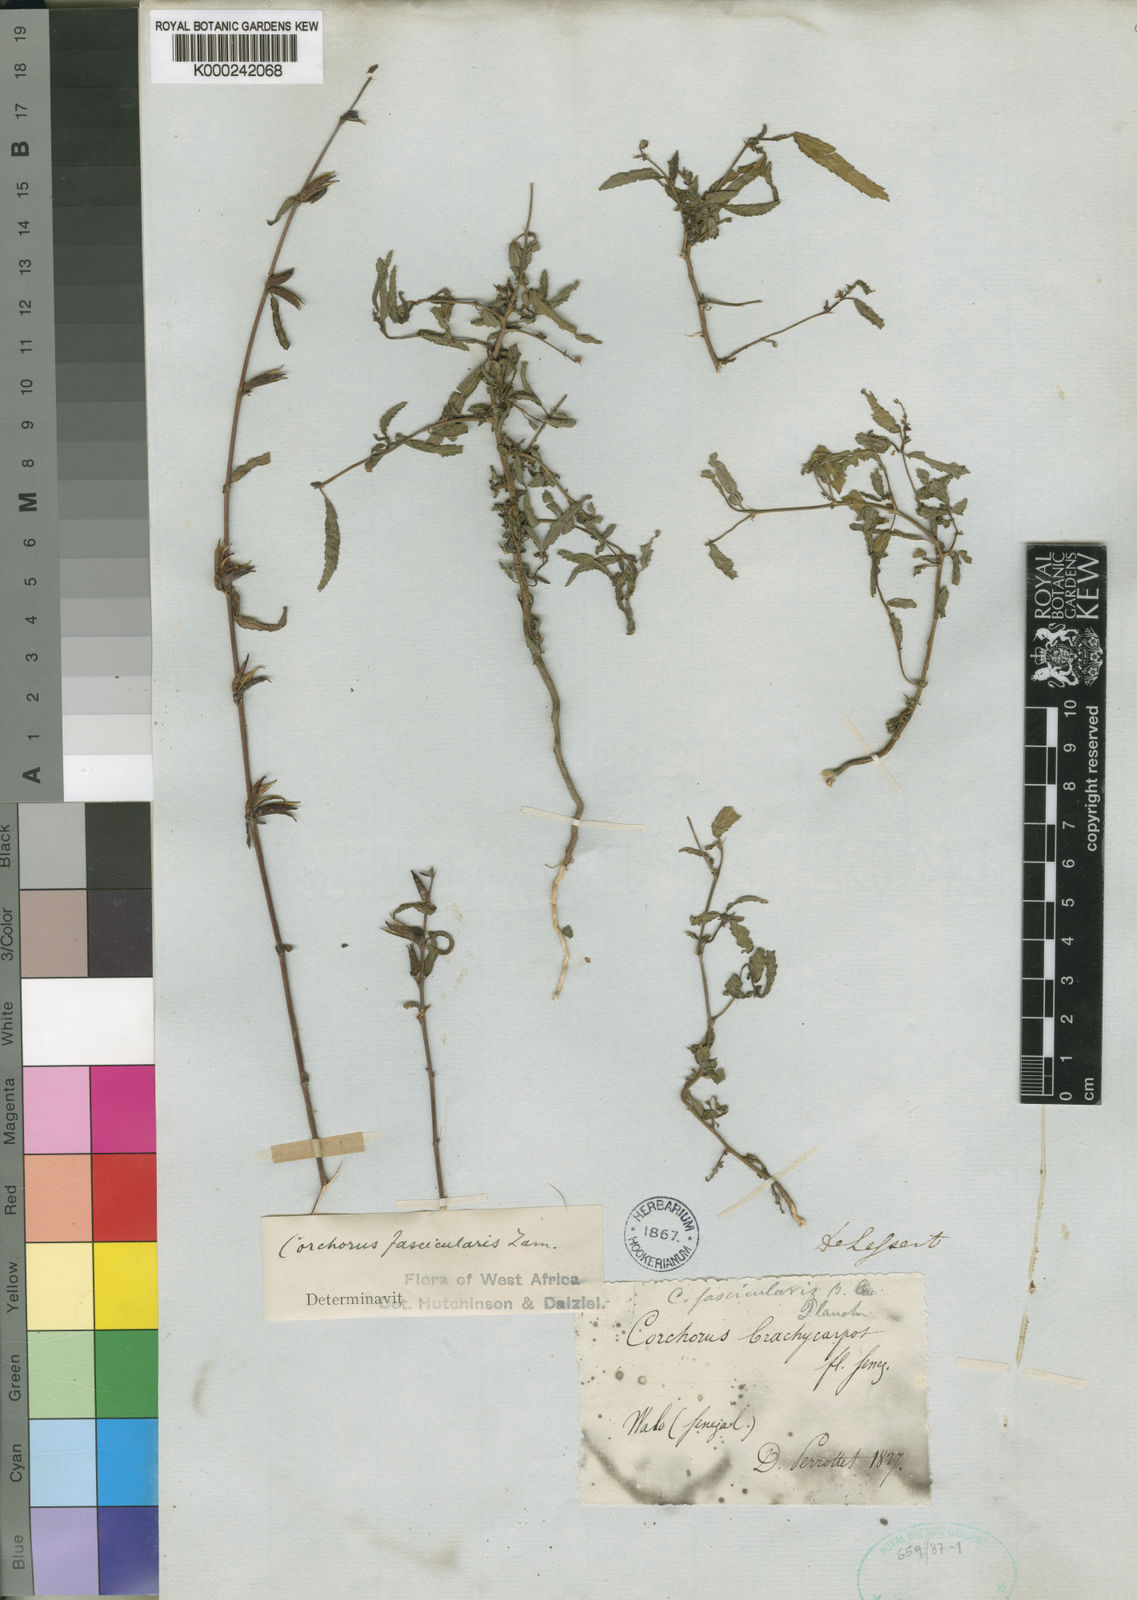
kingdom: Plantae
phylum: Tracheophyta
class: Magnoliopsida
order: Malvales
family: Malvaceae
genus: Corchorus
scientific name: Corchorus fascicularis
